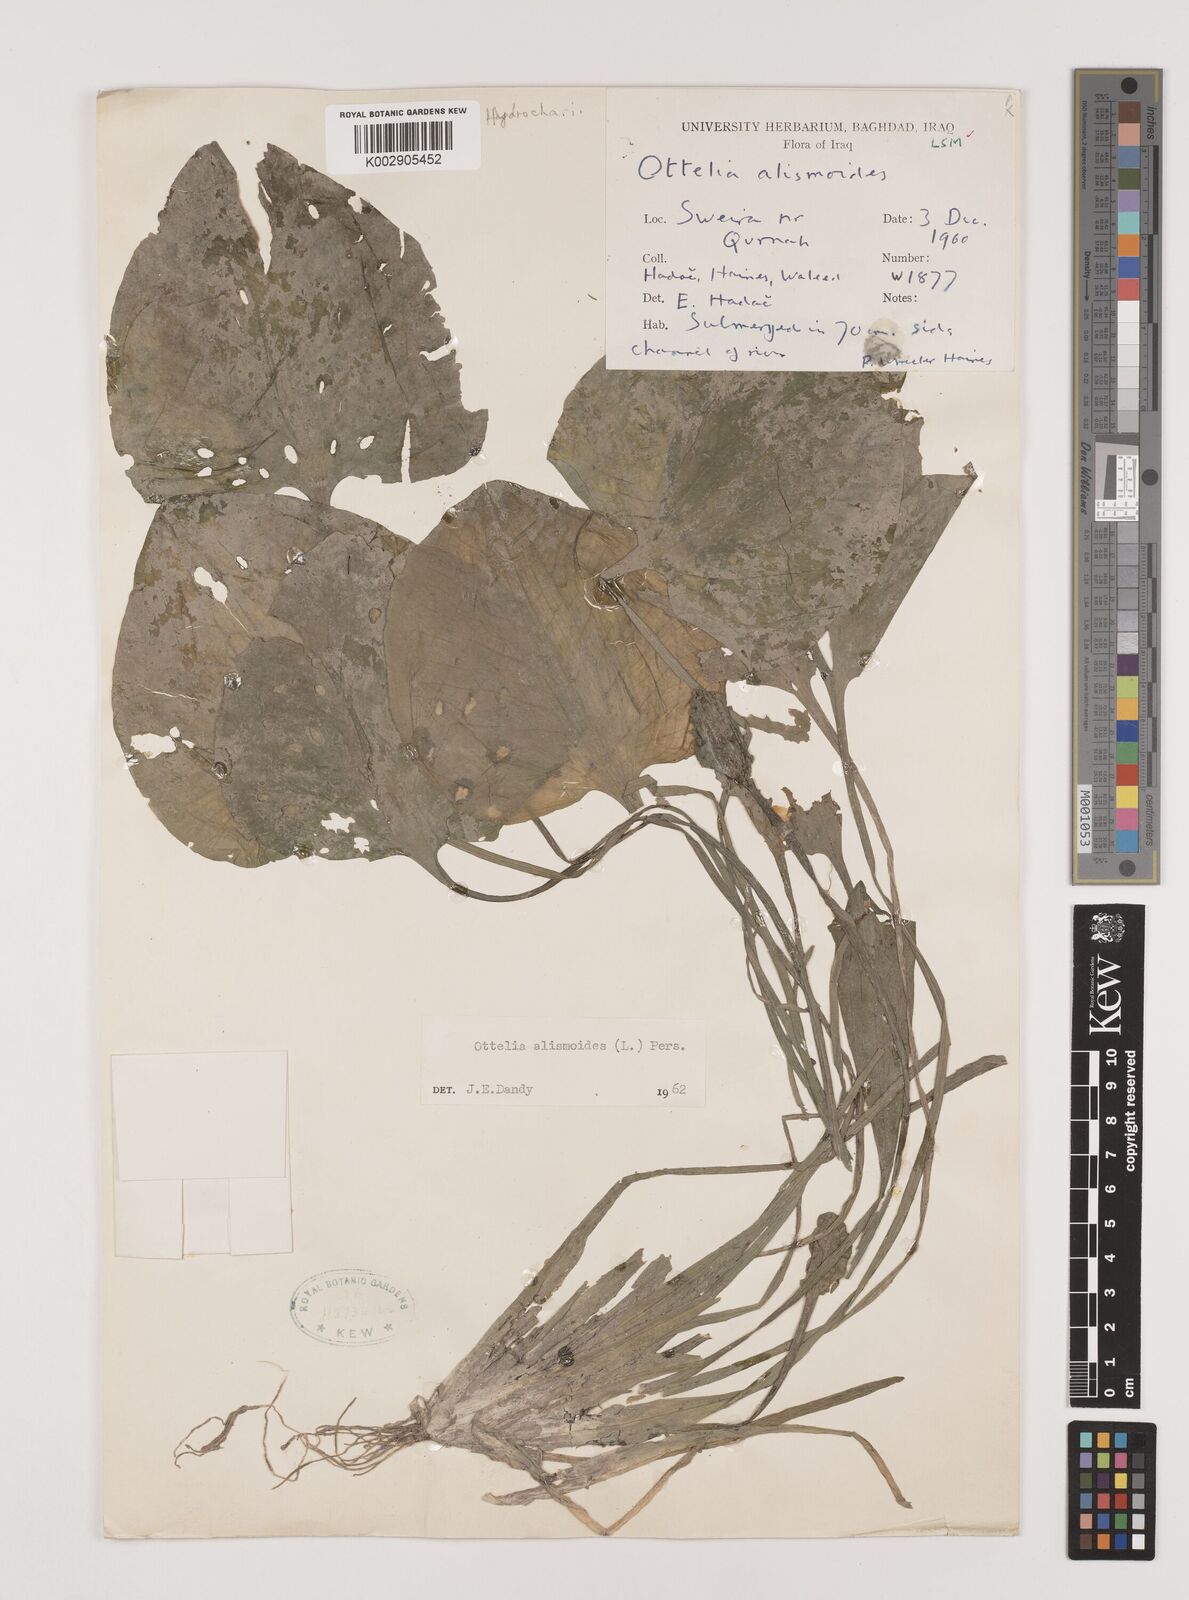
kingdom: Plantae
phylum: Tracheophyta
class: Liliopsida
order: Alismatales
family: Hydrocharitaceae
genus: Ottelia
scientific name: Ottelia alismoides
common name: Duck-lettuce
